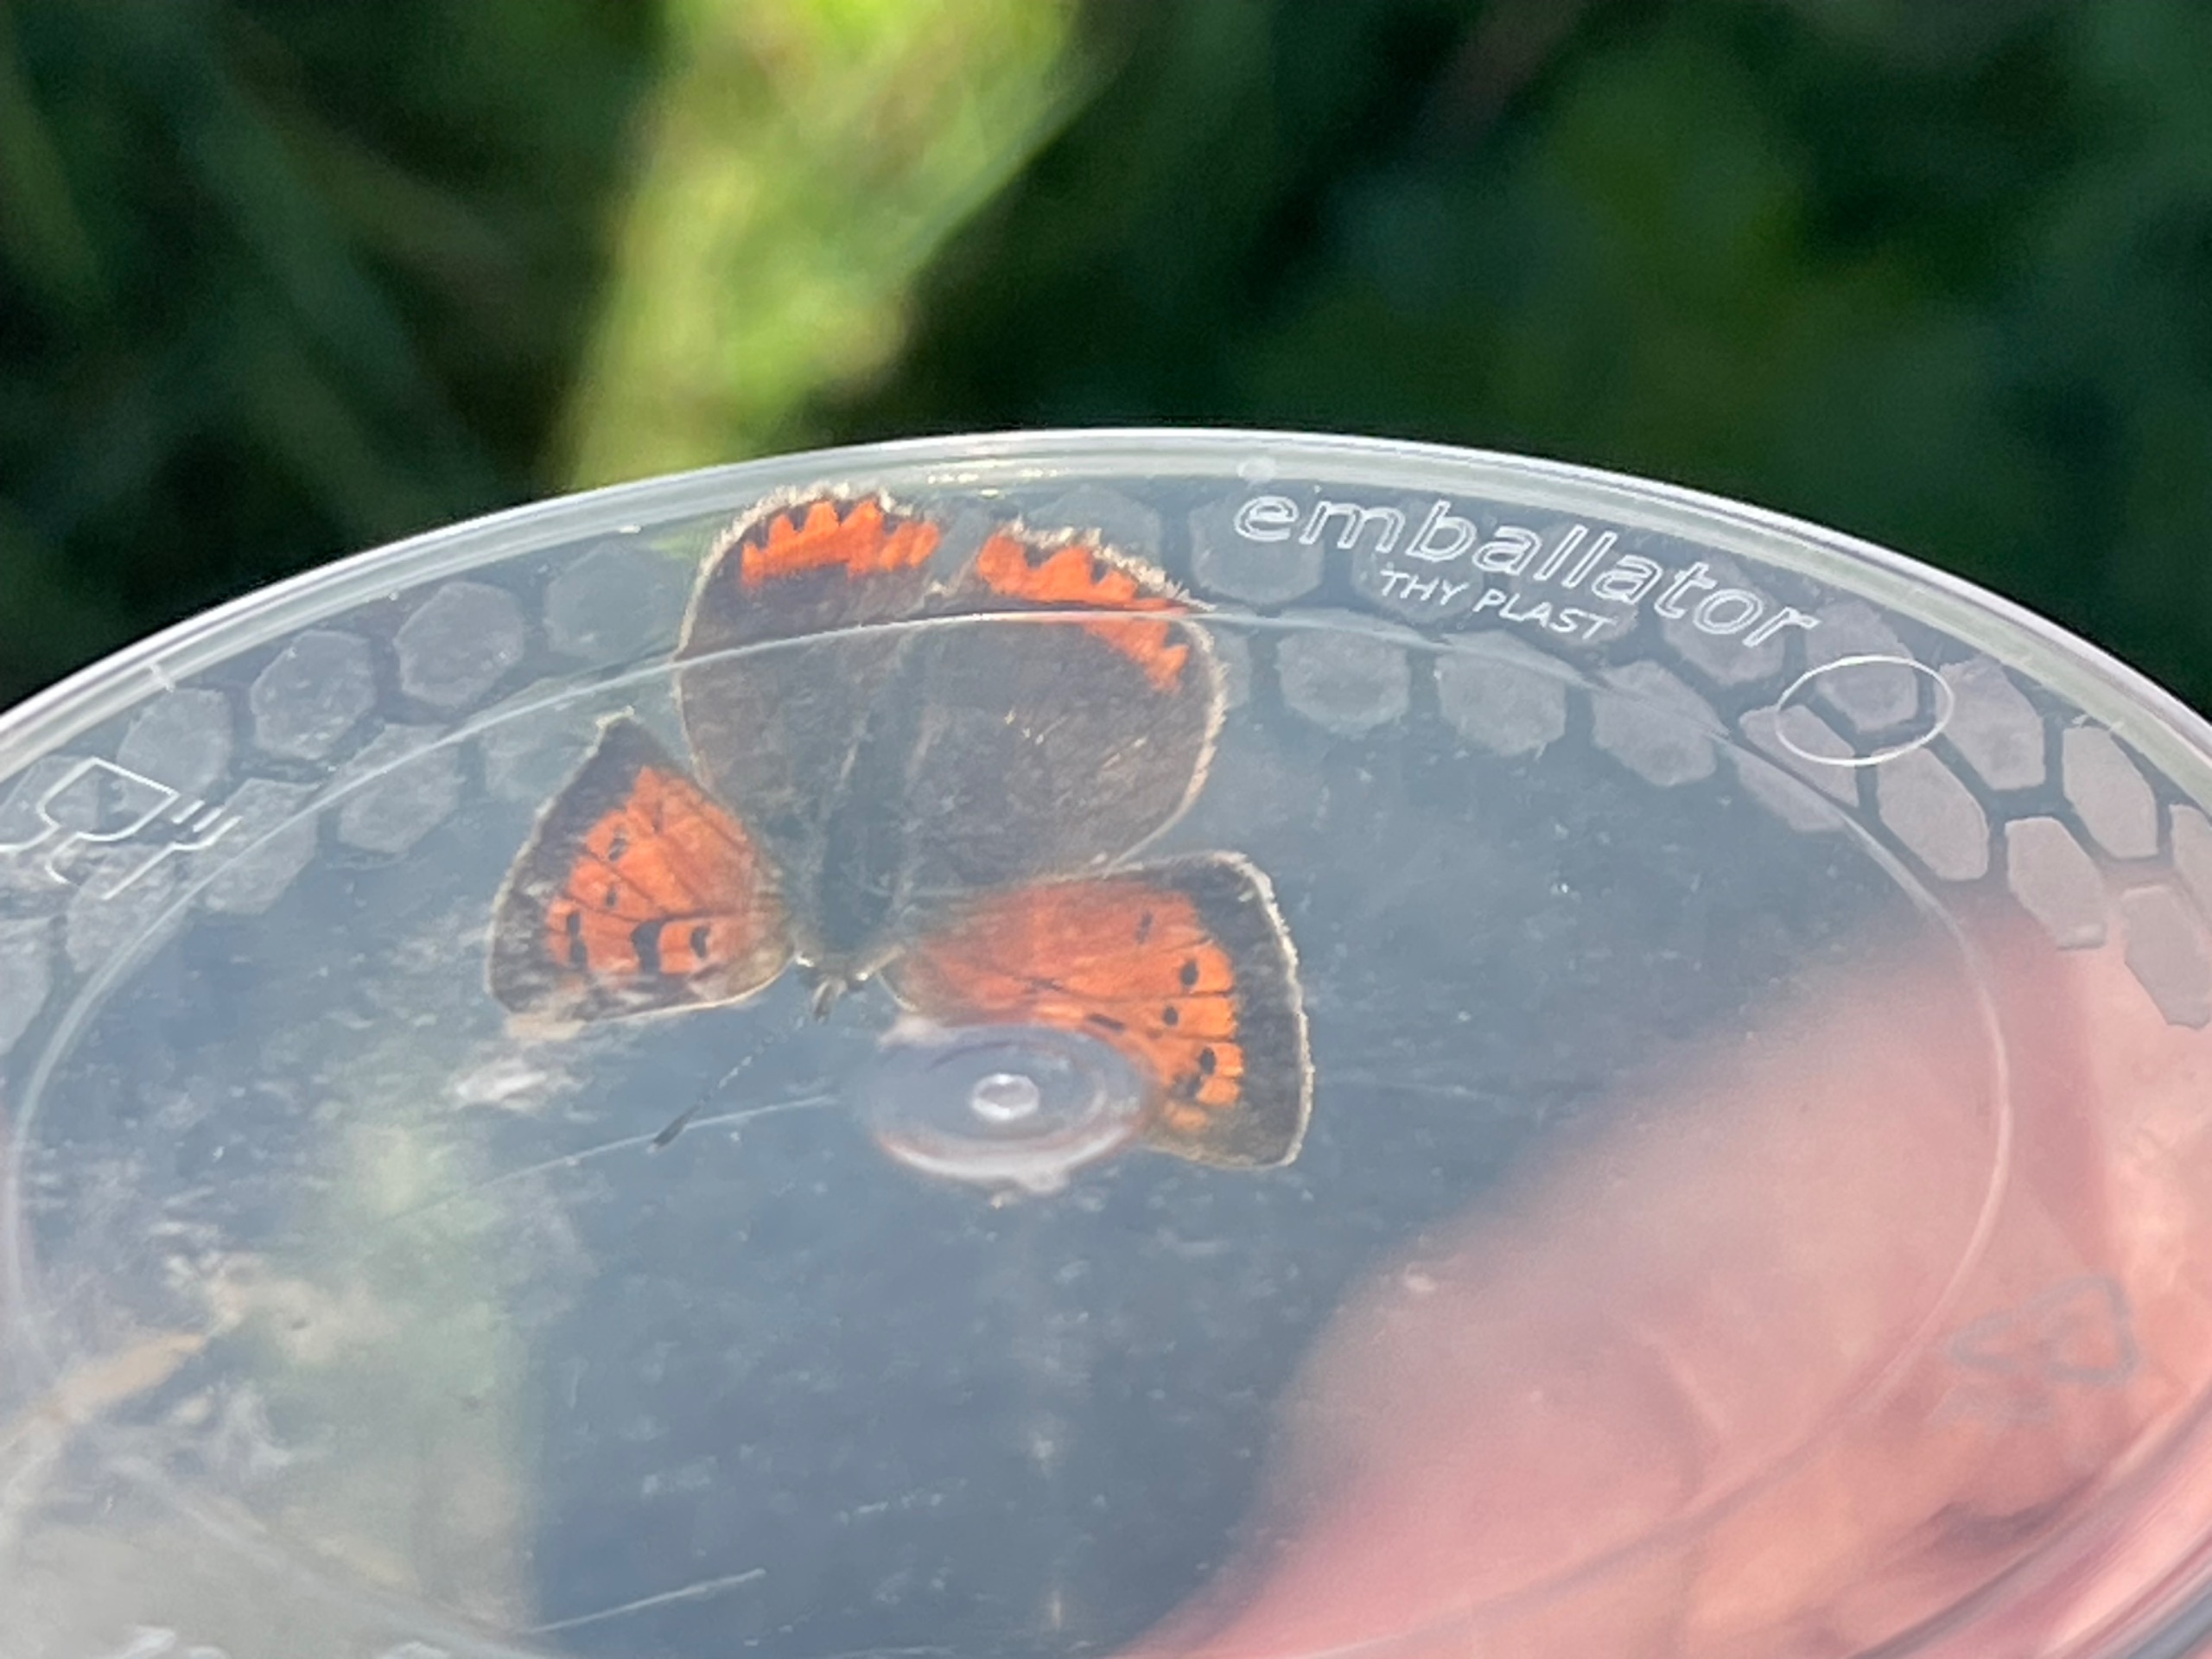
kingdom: Animalia
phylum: Arthropoda
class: Insecta
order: Lepidoptera
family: Lycaenidae
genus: Lycaena
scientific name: Lycaena phlaeas
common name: Lille ildfugl
